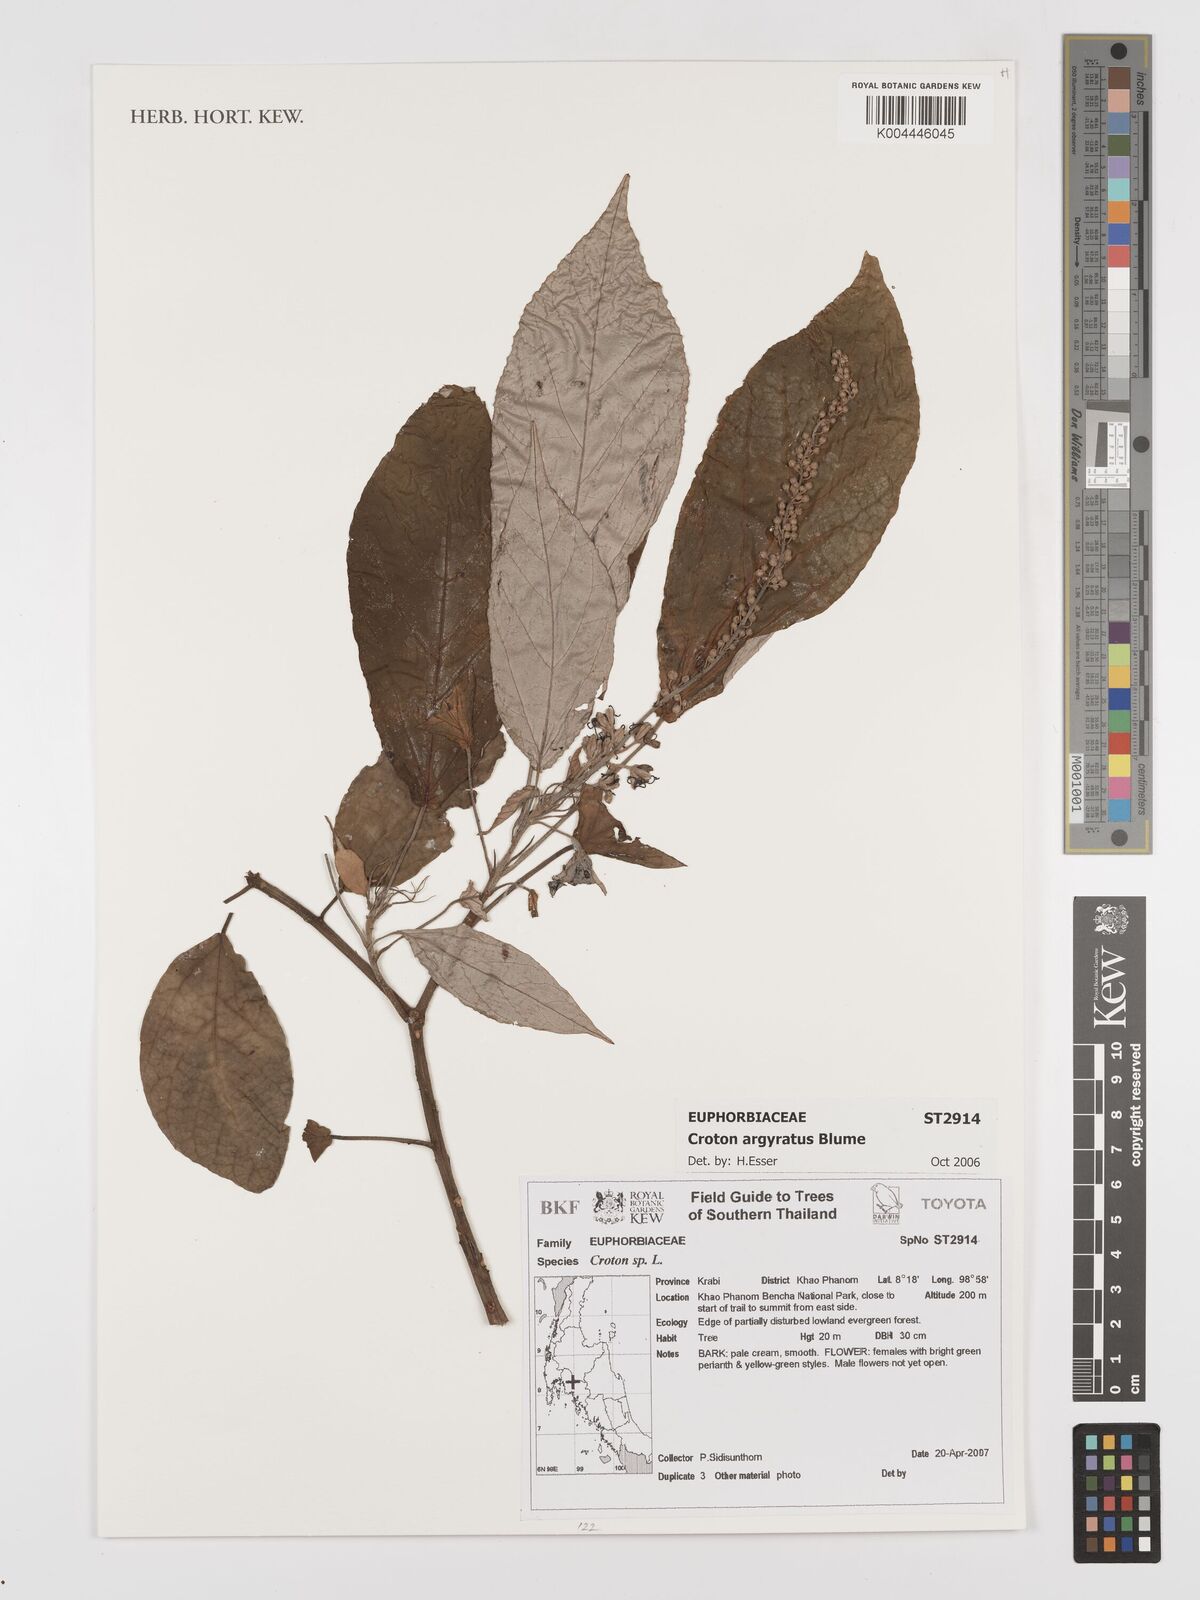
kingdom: Plantae
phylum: Tracheophyta
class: Magnoliopsida
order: Malpighiales
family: Euphorbiaceae
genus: Croton
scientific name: Croton argyratus
